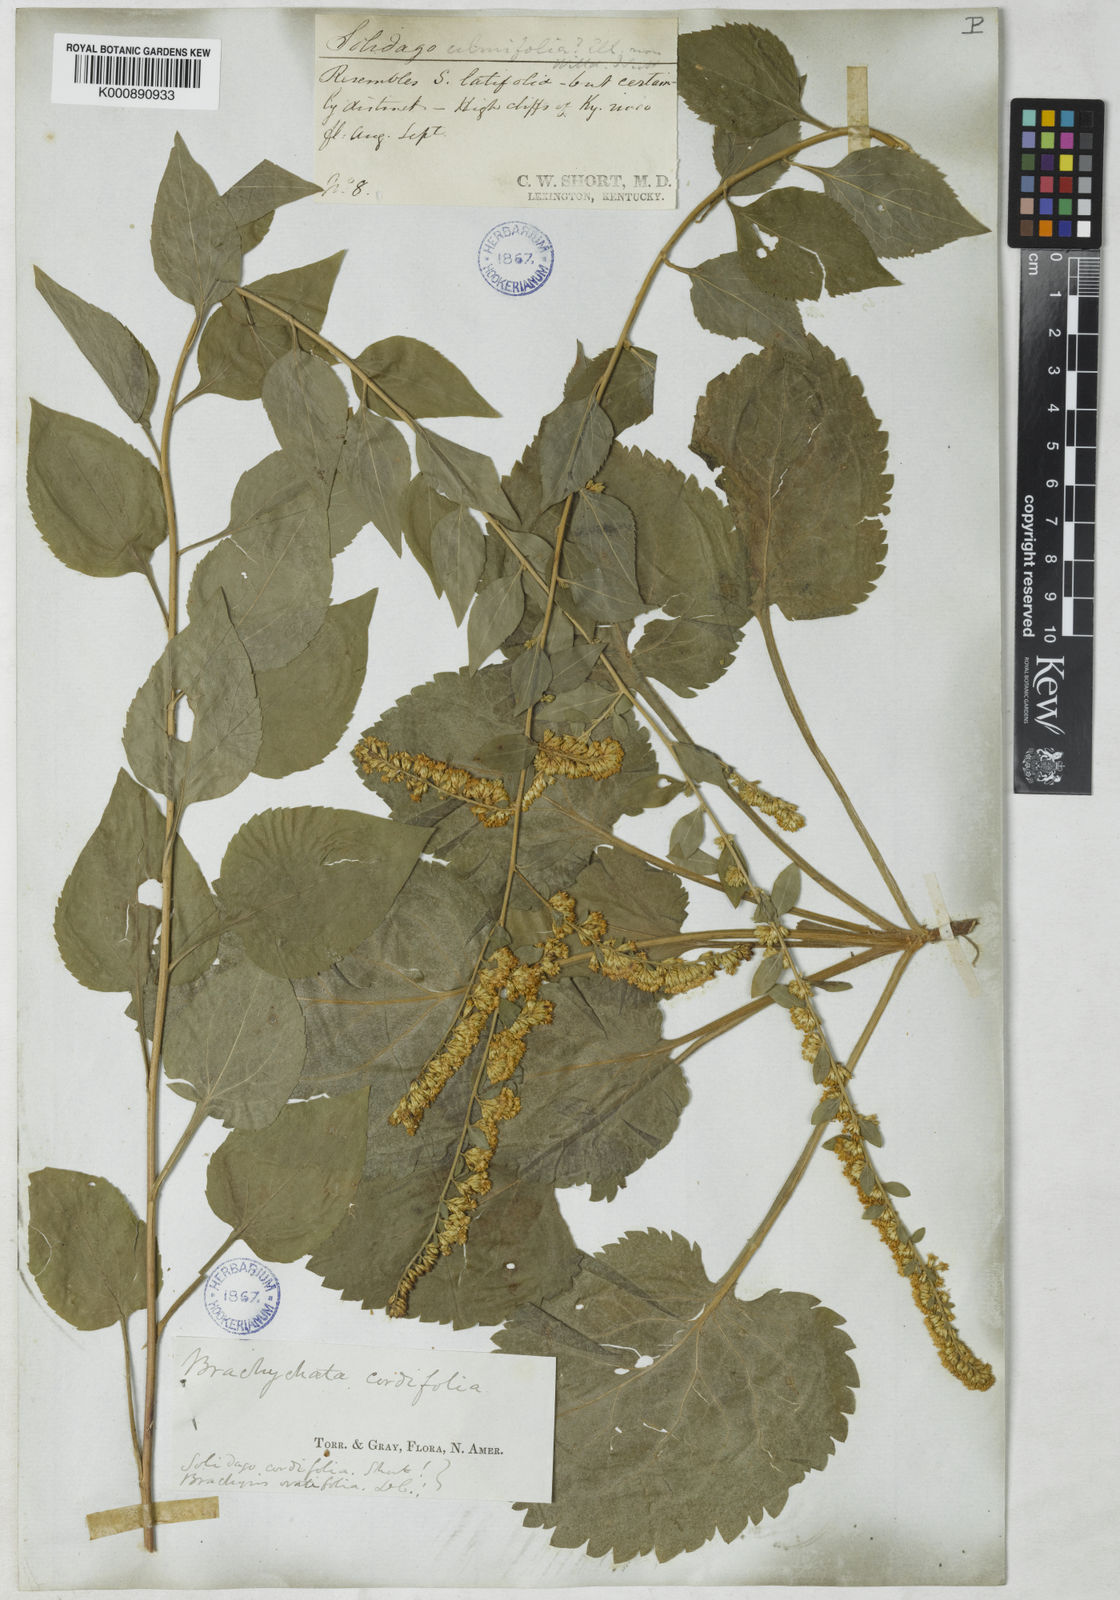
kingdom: Plantae
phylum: Tracheophyta
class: Magnoliopsida
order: Asterales
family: Asteraceae
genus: Solidago
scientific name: Solidago sphacelata
